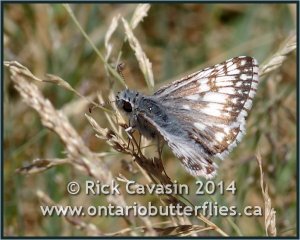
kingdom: Animalia
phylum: Arthropoda
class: Insecta
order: Lepidoptera
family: Hesperiidae
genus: Pyrgus
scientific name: Pyrgus communis
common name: Common Checkered-Skipper
